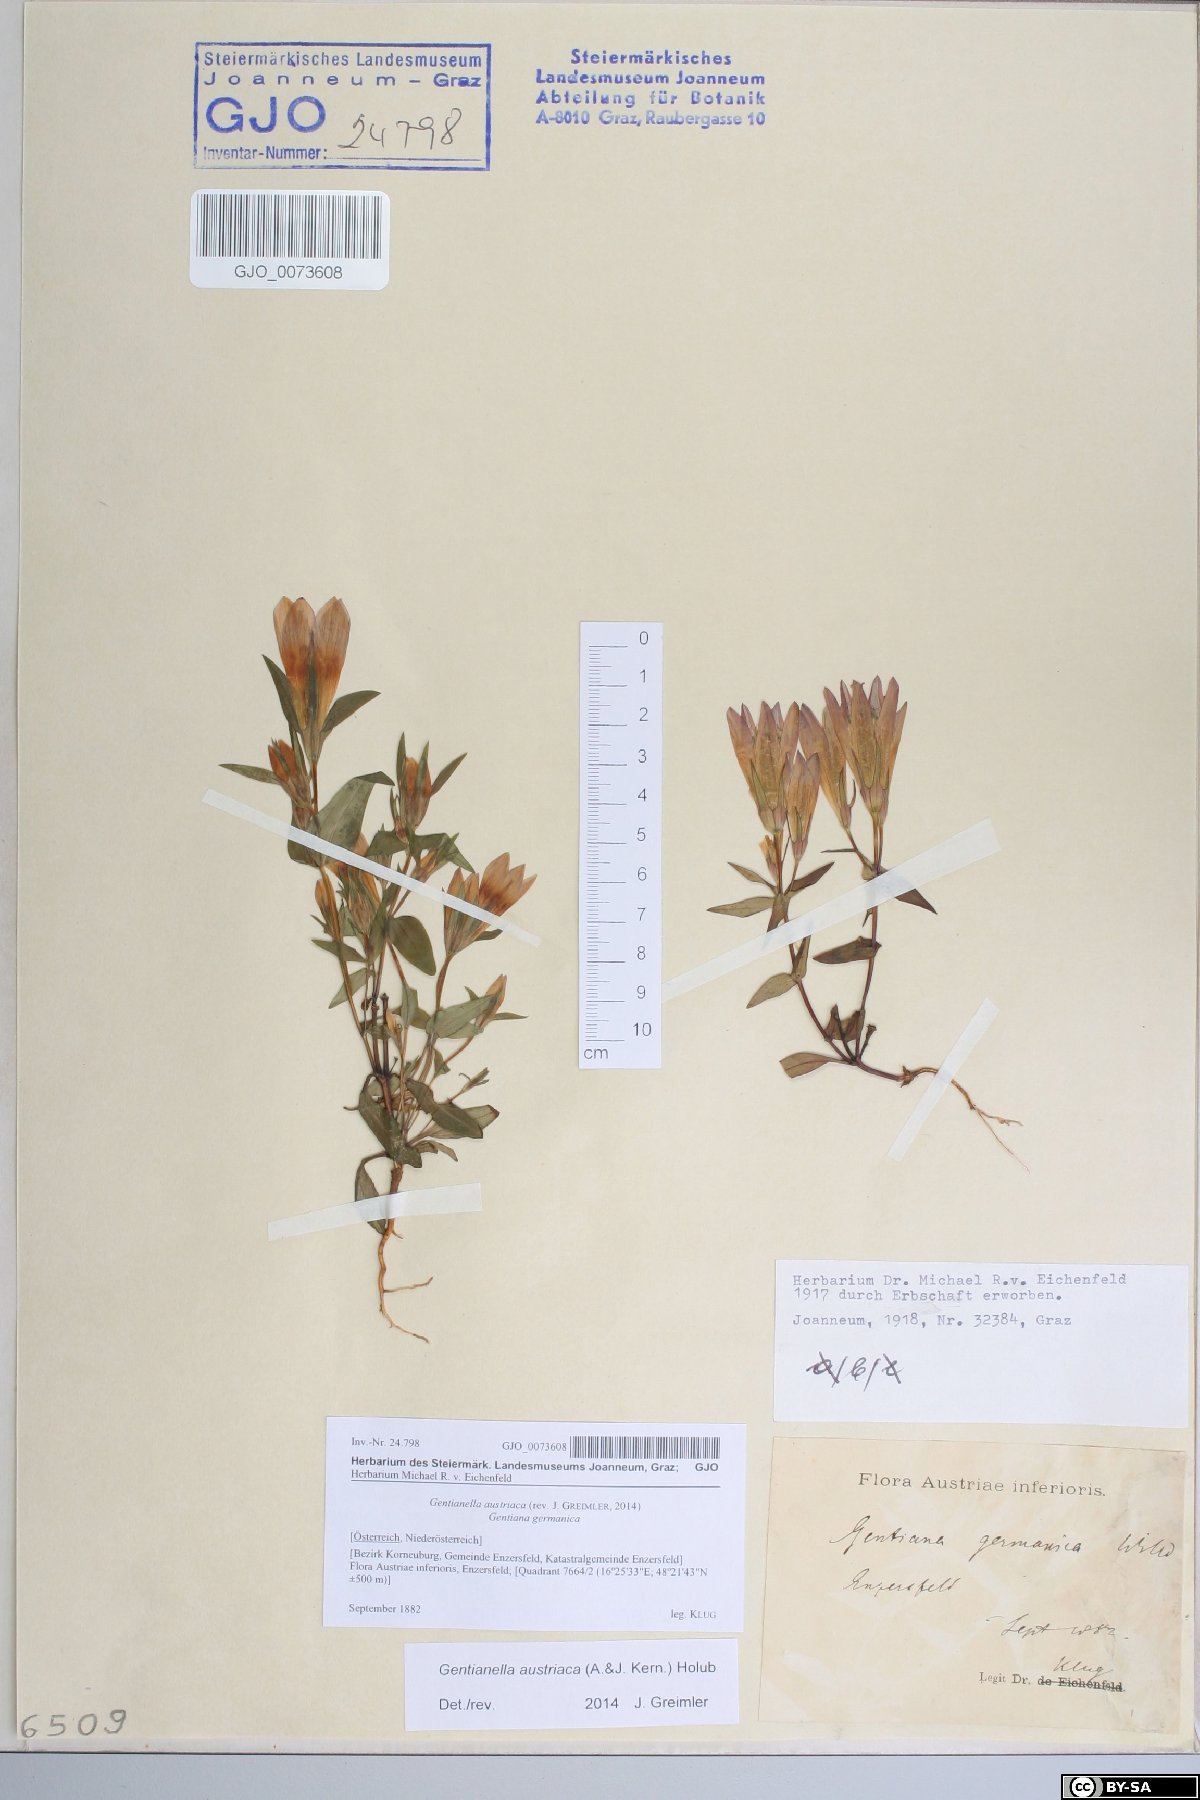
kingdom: Plantae
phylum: Tracheophyta
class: Magnoliopsida
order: Gentianales
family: Gentianaceae
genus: Gentianella
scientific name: Gentianella austriaca
